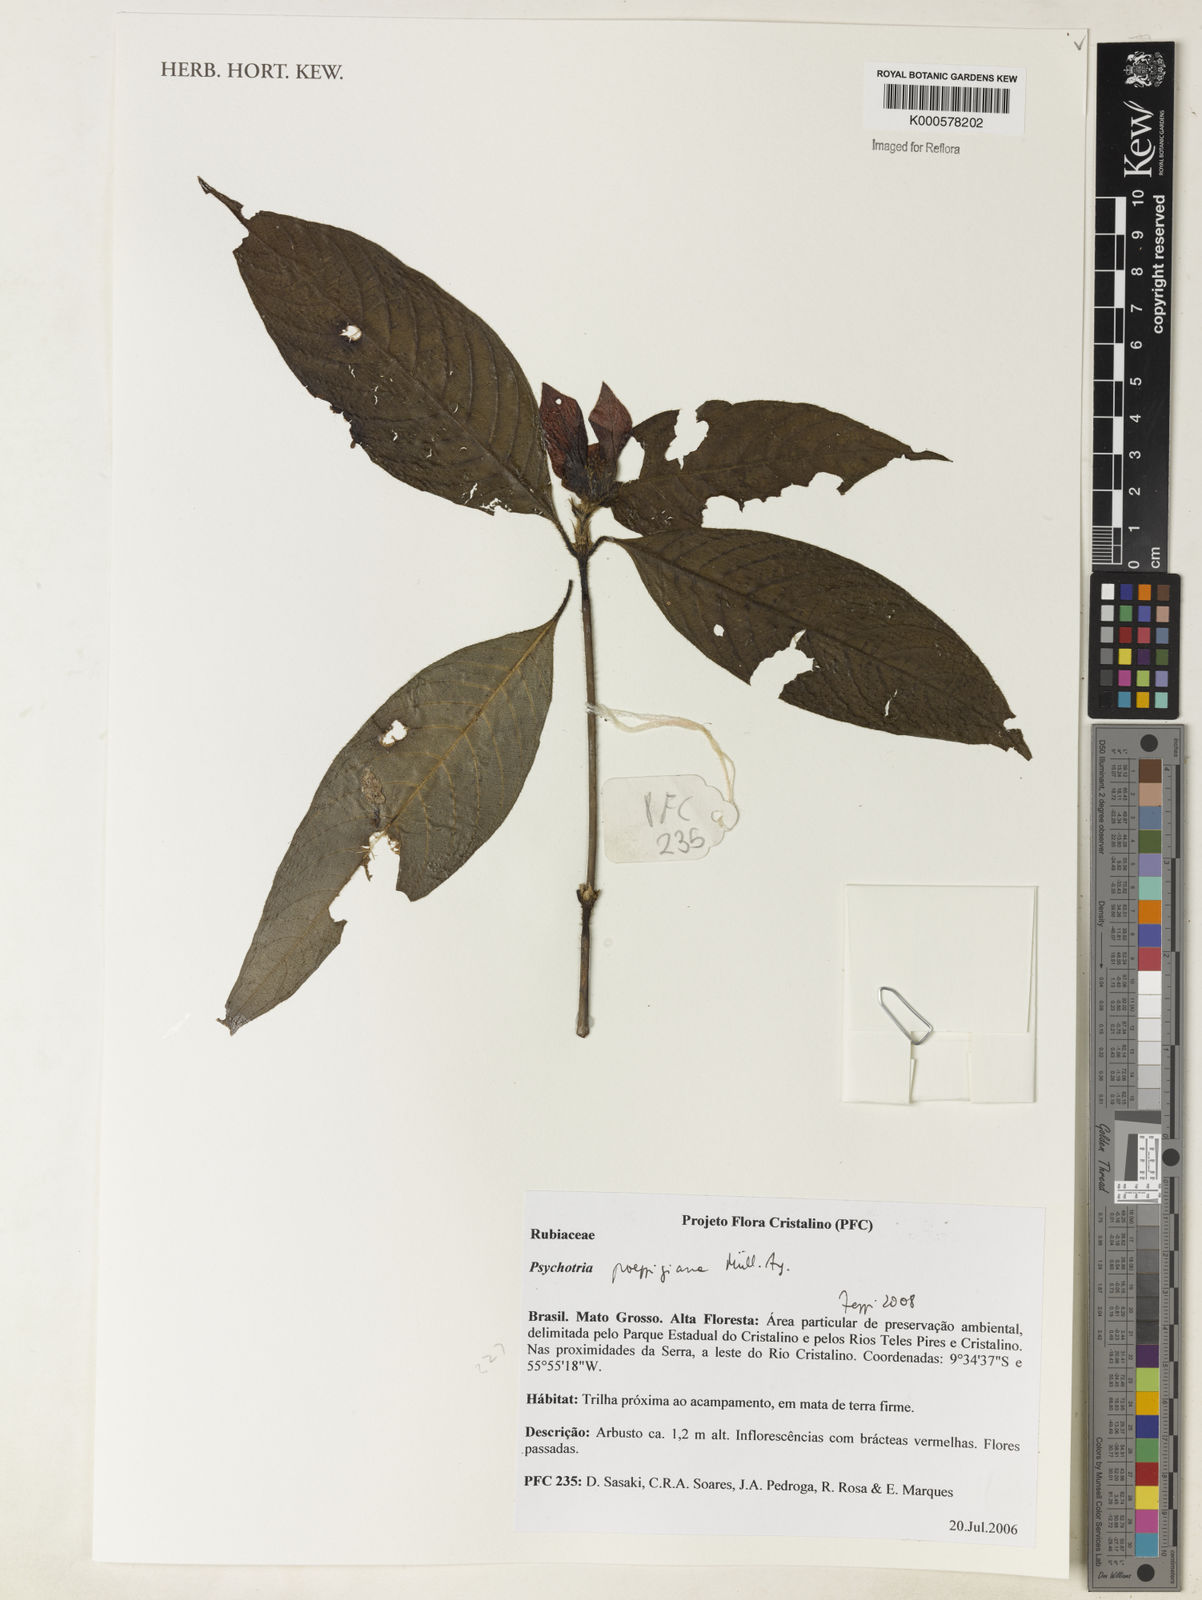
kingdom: Plantae
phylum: Tracheophyta
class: Magnoliopsida
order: Gentianales
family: Rubiaceae
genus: Psychotria
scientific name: Psychotria
